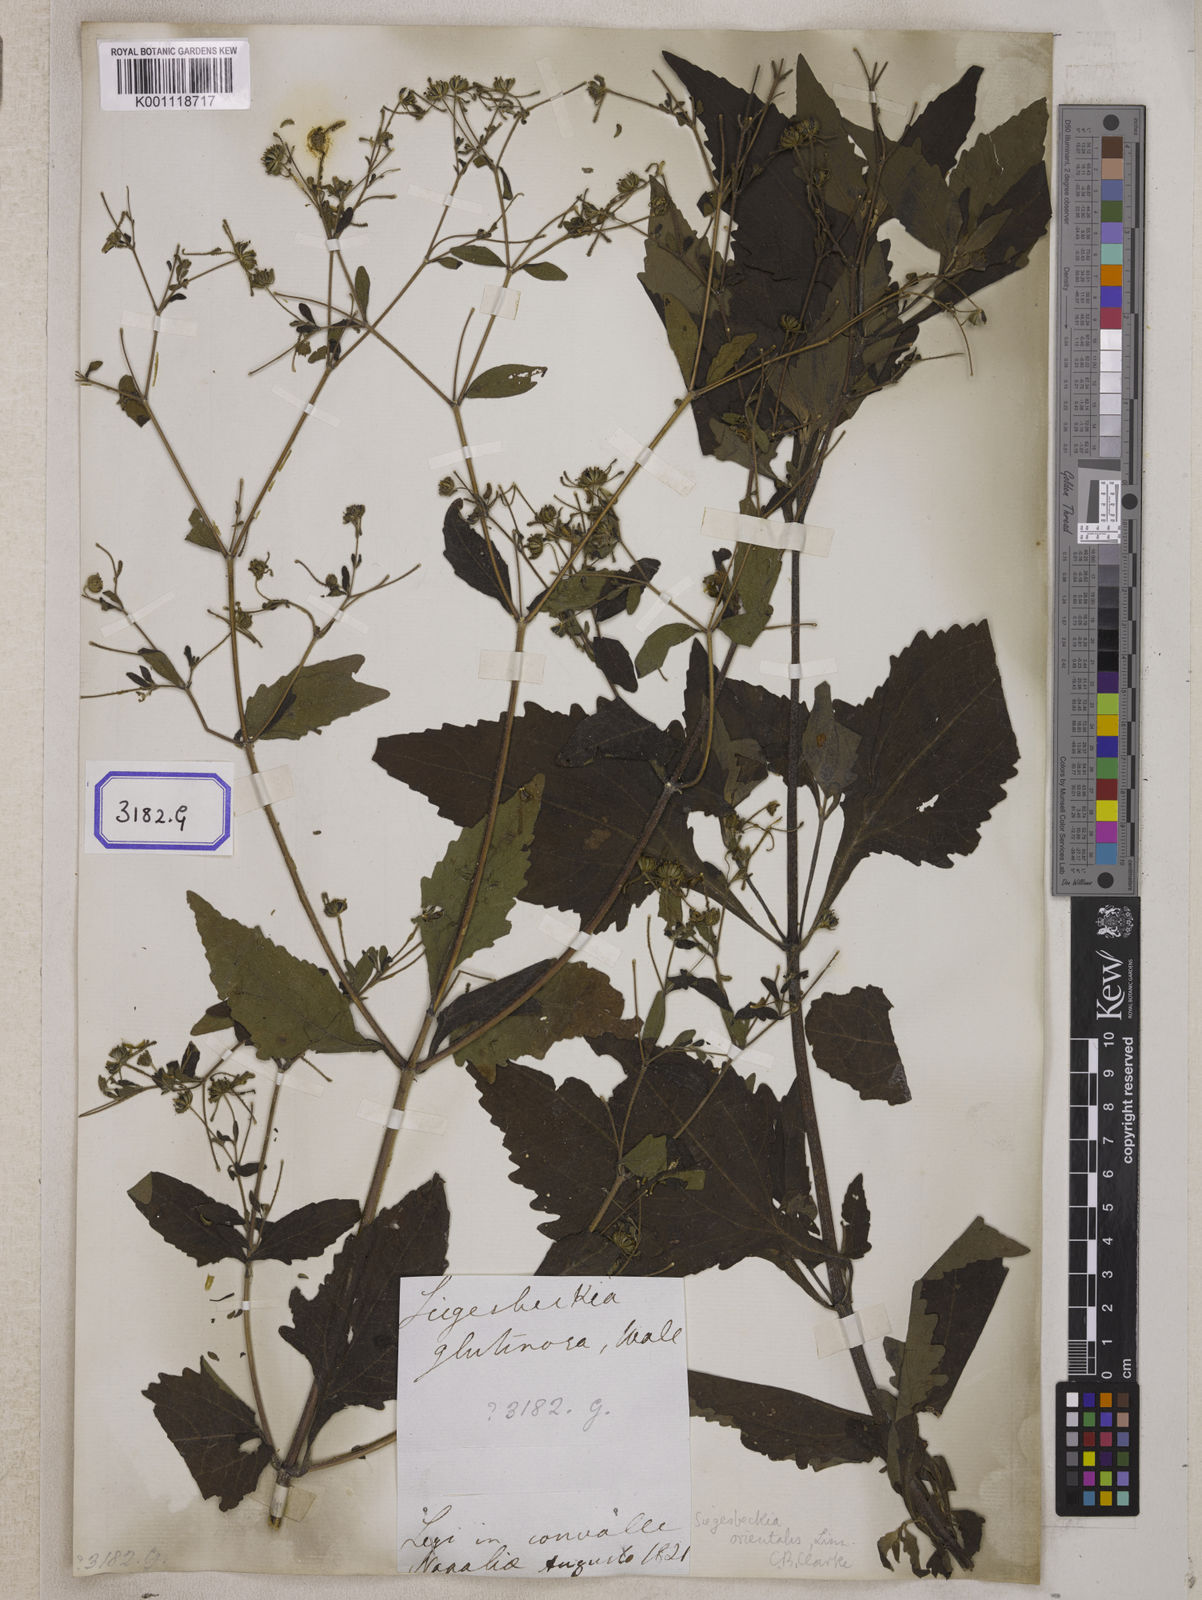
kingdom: Plantae
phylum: Tracheophyta
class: Magnoliopsida
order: Asterales
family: Asteraceae
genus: Sigesbeckia
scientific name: Sigesbeckia orientalis
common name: Eastern st paul's-wort
